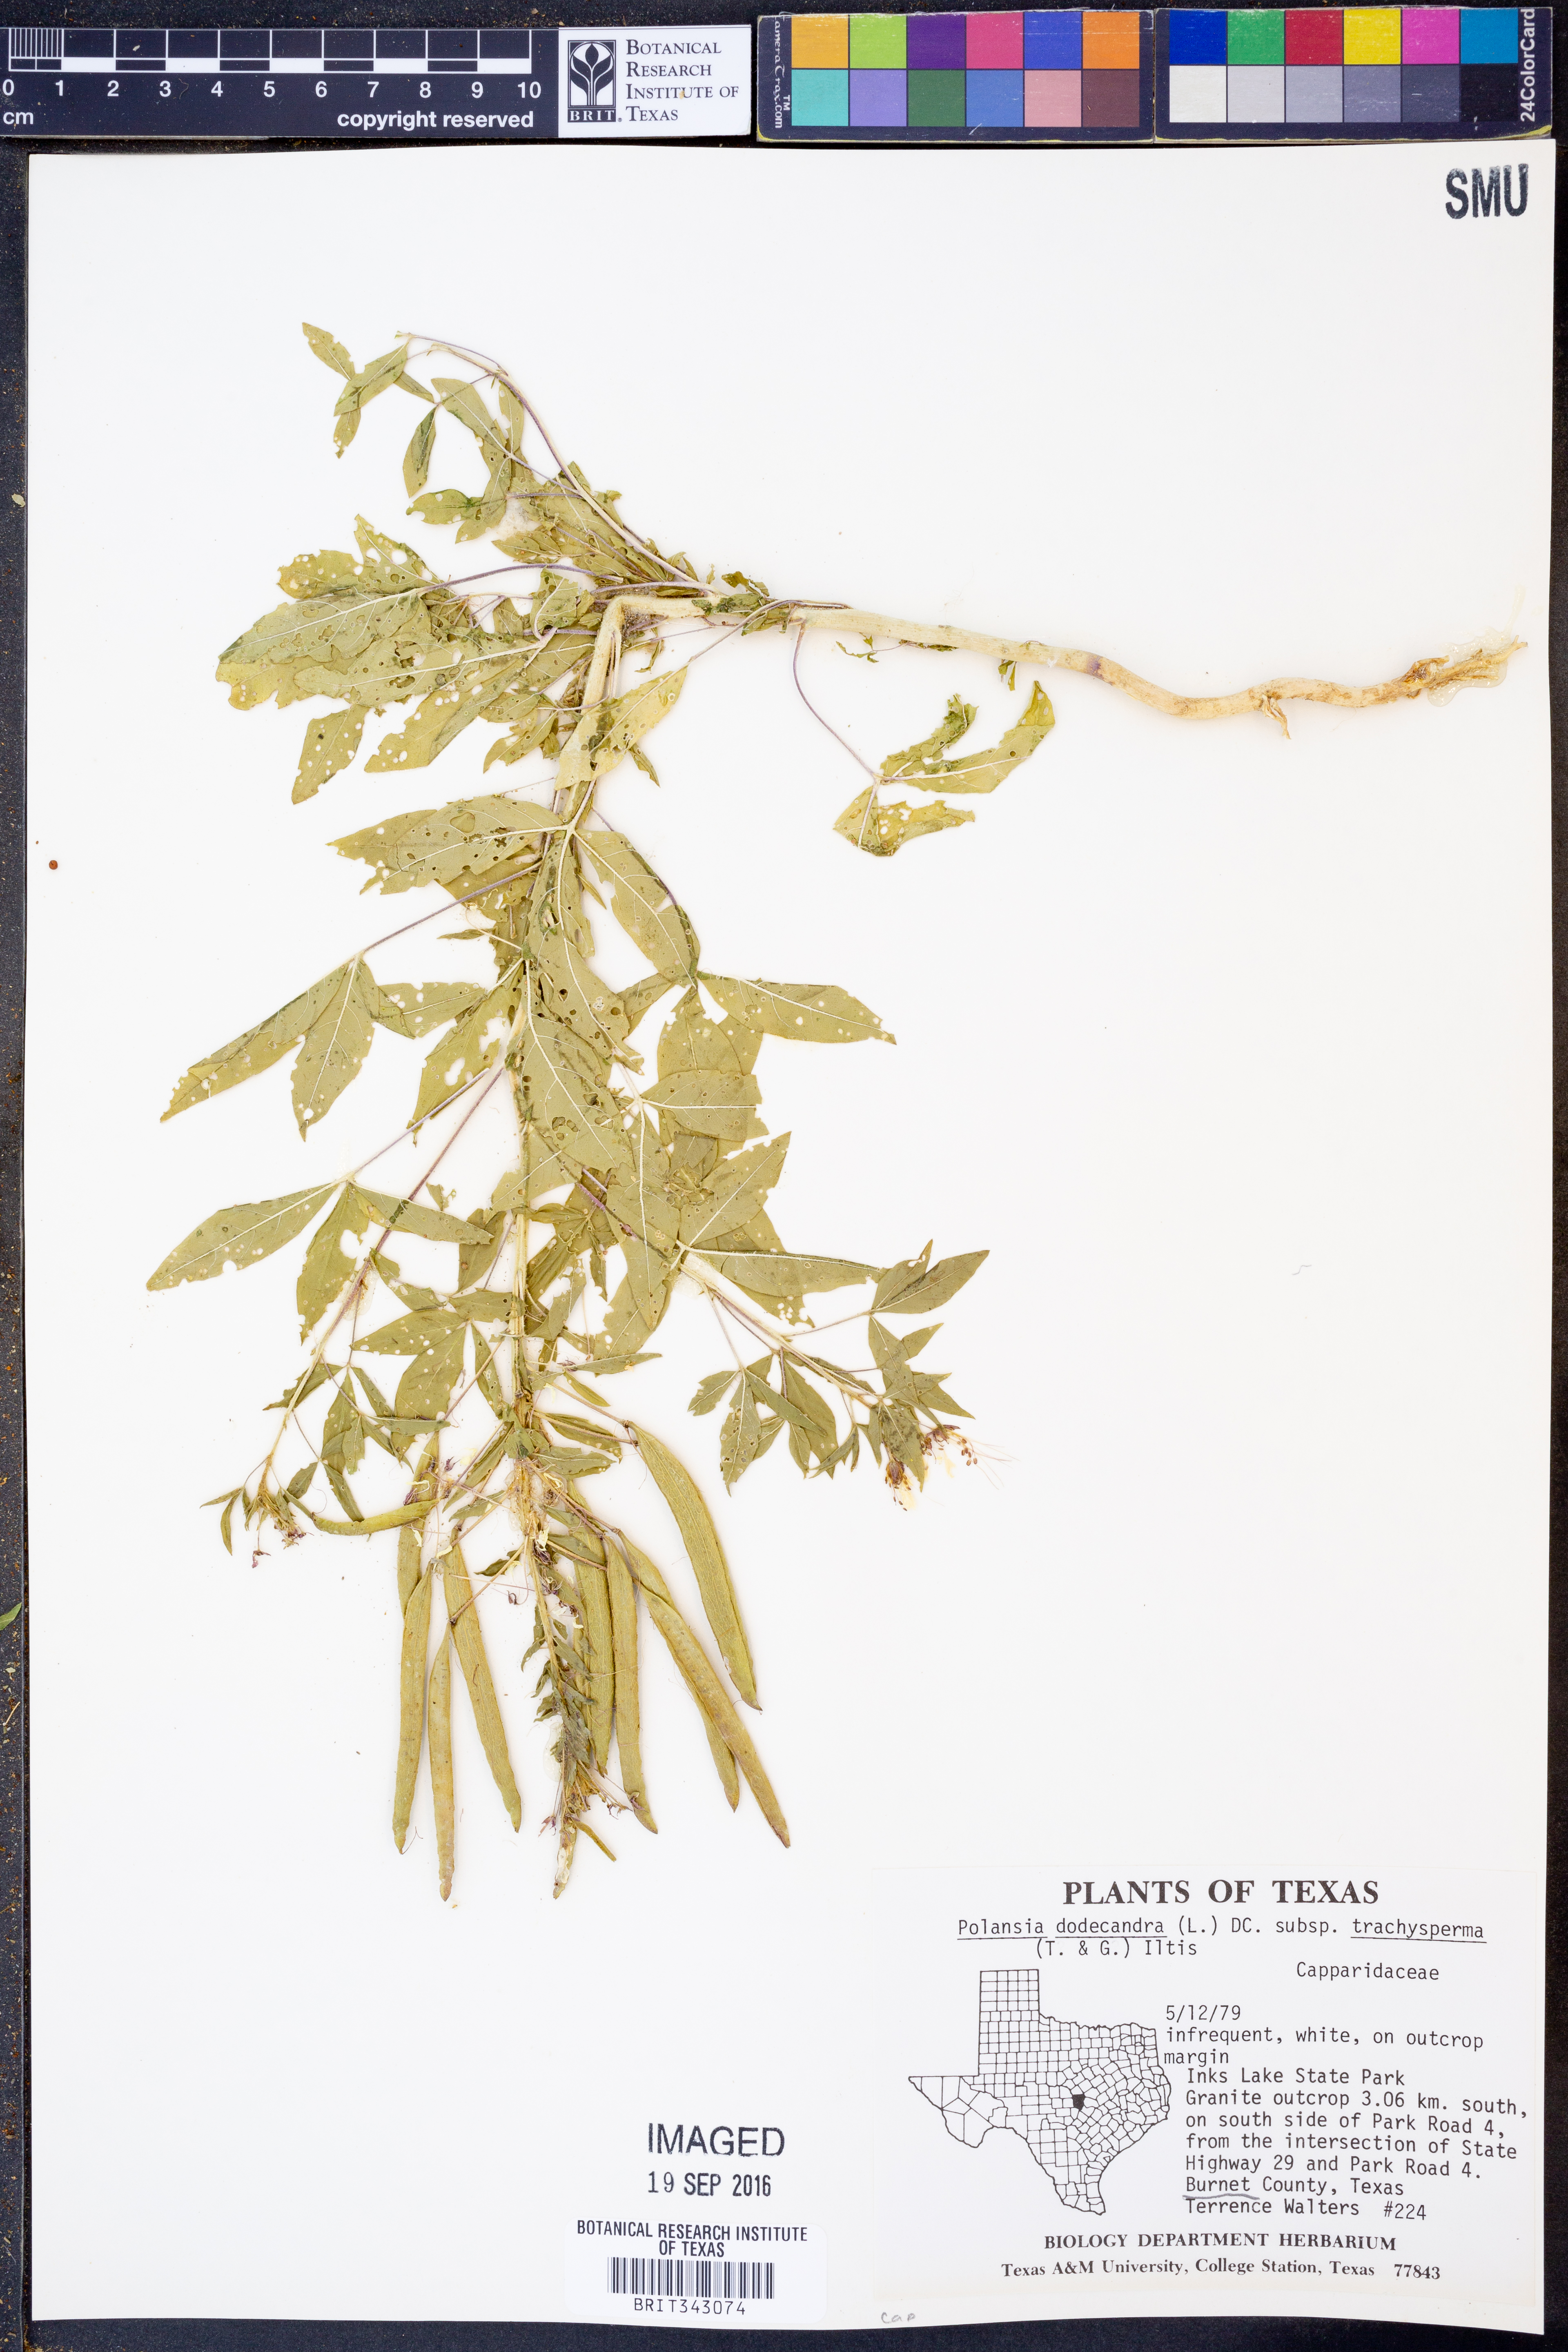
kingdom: Plantae
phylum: Tracheophyta
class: Magnoliopsida
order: Brassicales
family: Cleomaceae
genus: Polanisia
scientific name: Polanisia trachysperma
